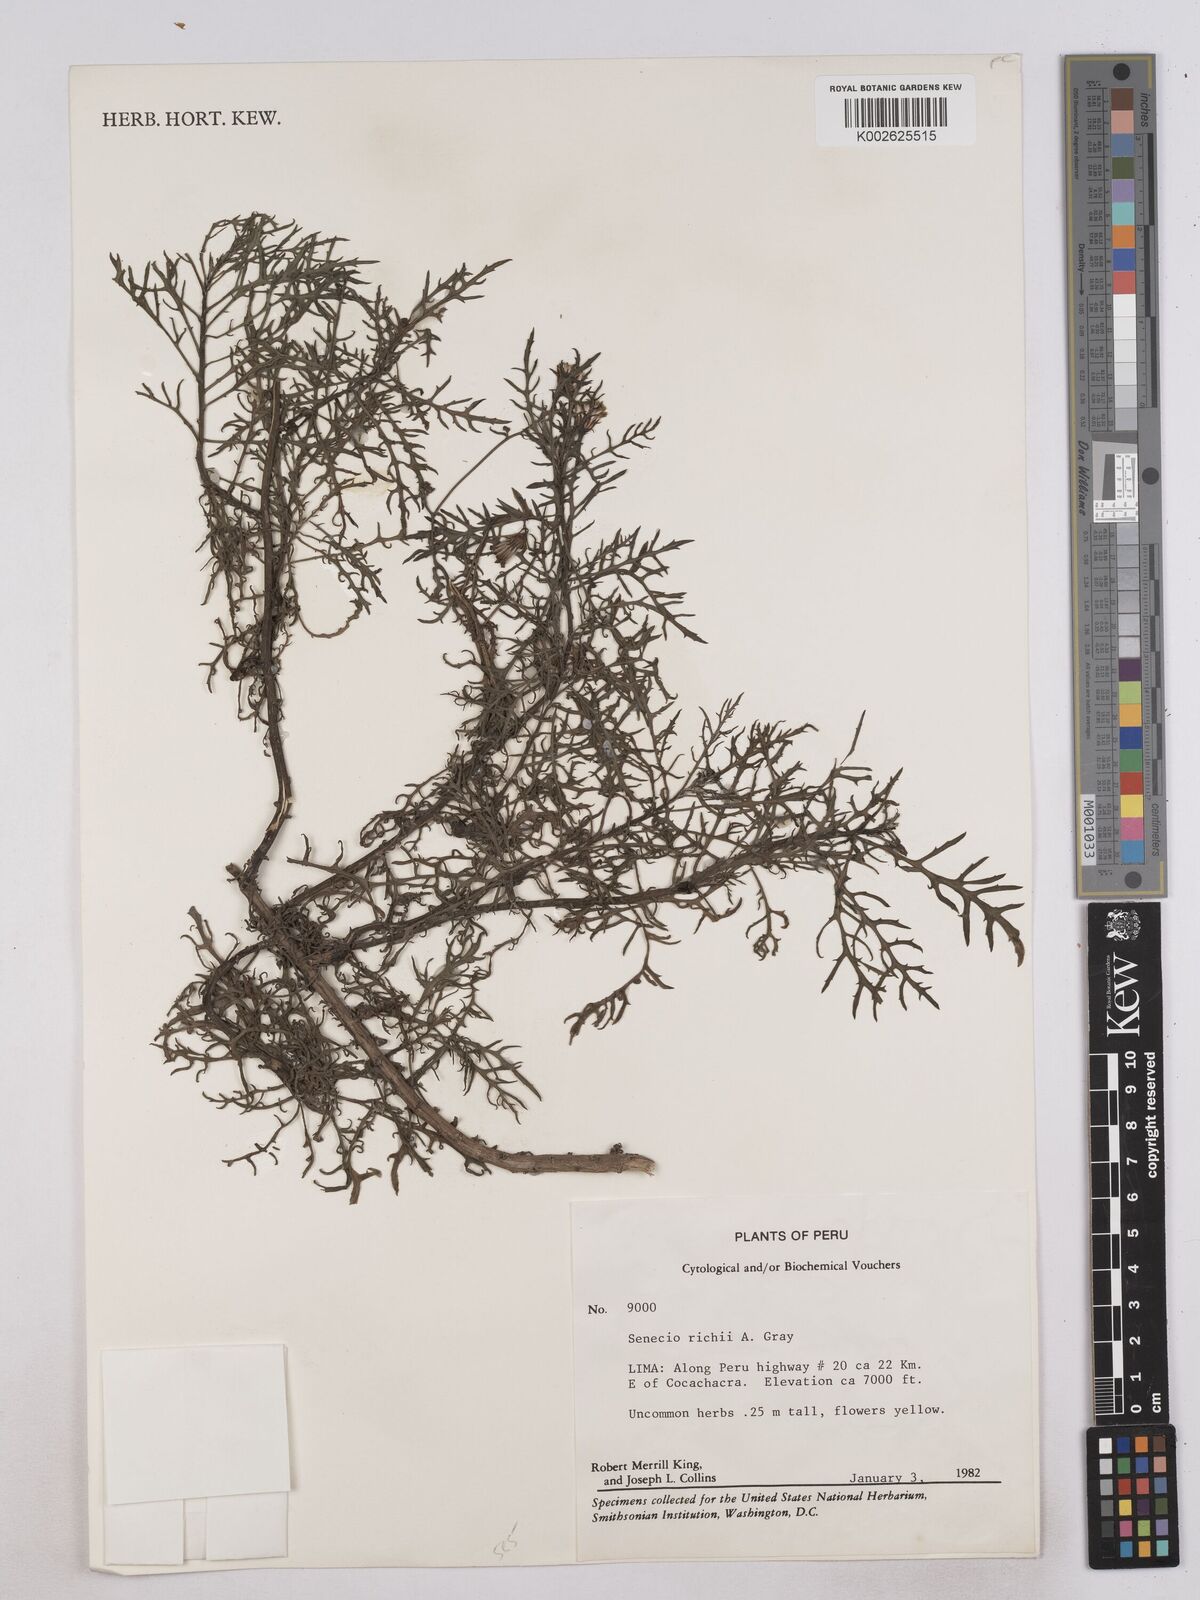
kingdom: Plantae
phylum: Tracheophyta
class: Magnoliopsida
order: Asterales
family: Asteraceae
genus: Senecio
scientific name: Senecio richii
